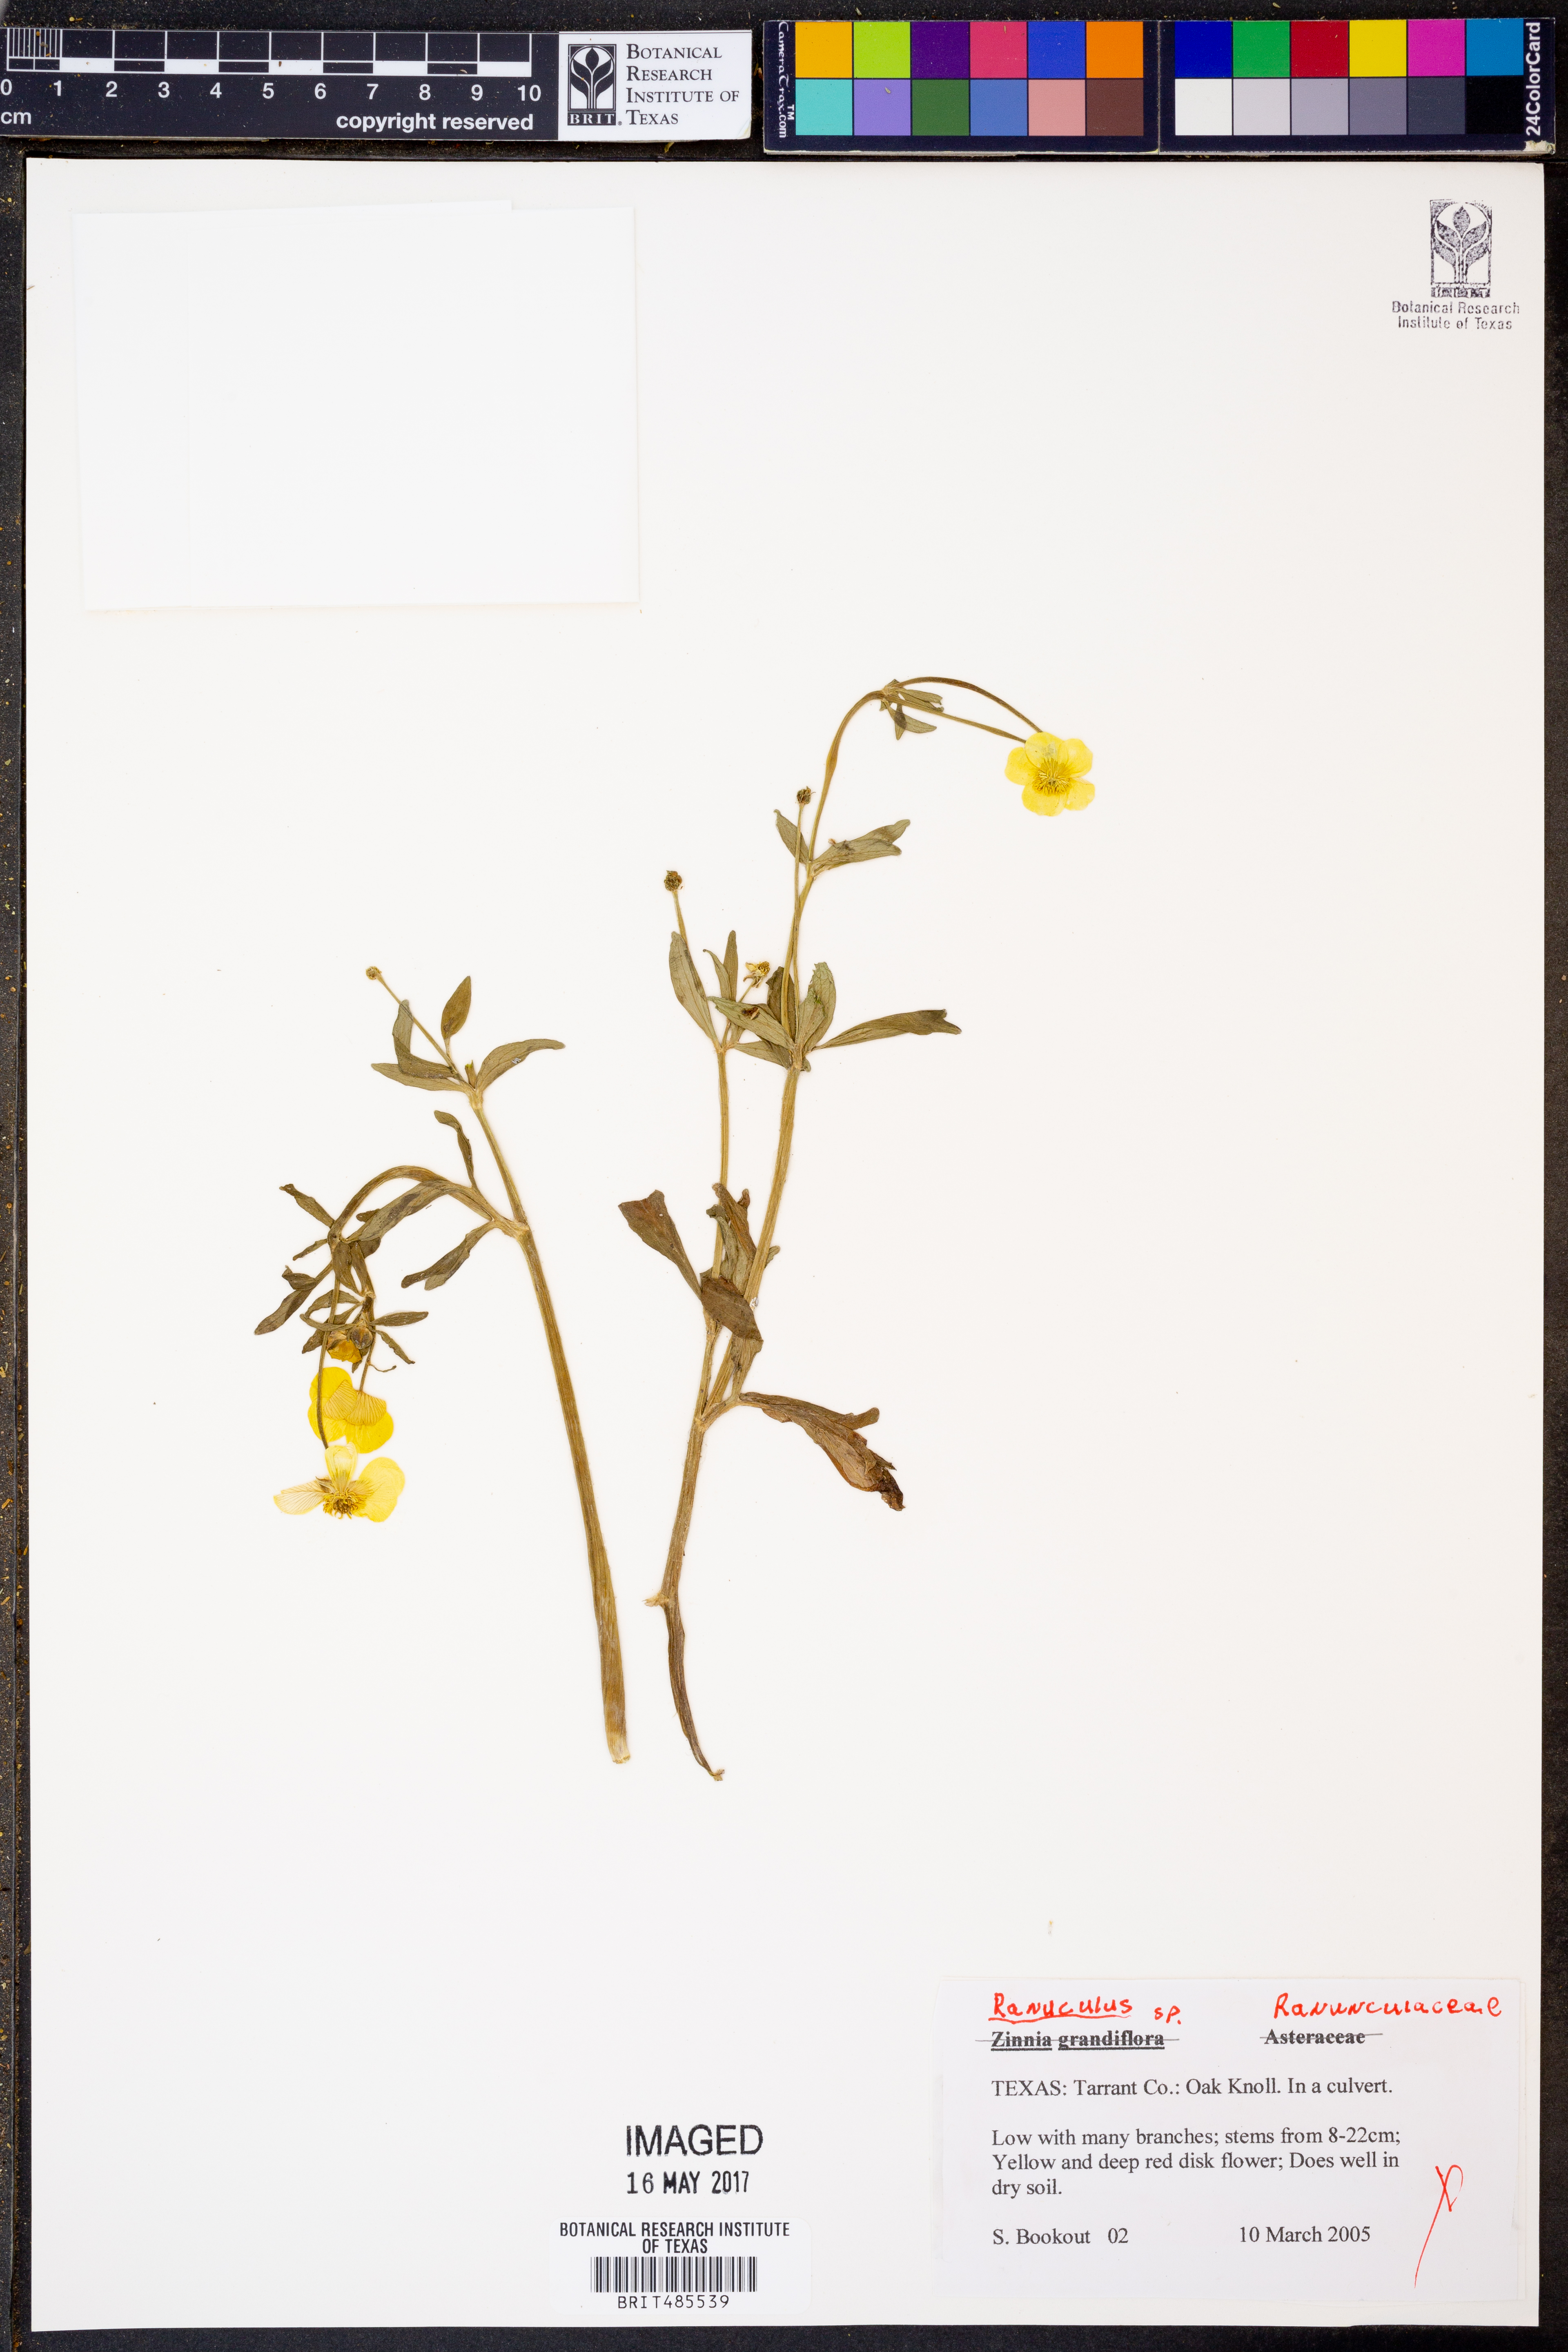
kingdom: Plantae
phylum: Tracheophyta
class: Magnoliopsida
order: Ranunculales
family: Ranunculaceae
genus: Ranunculus
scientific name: Ranunculus
